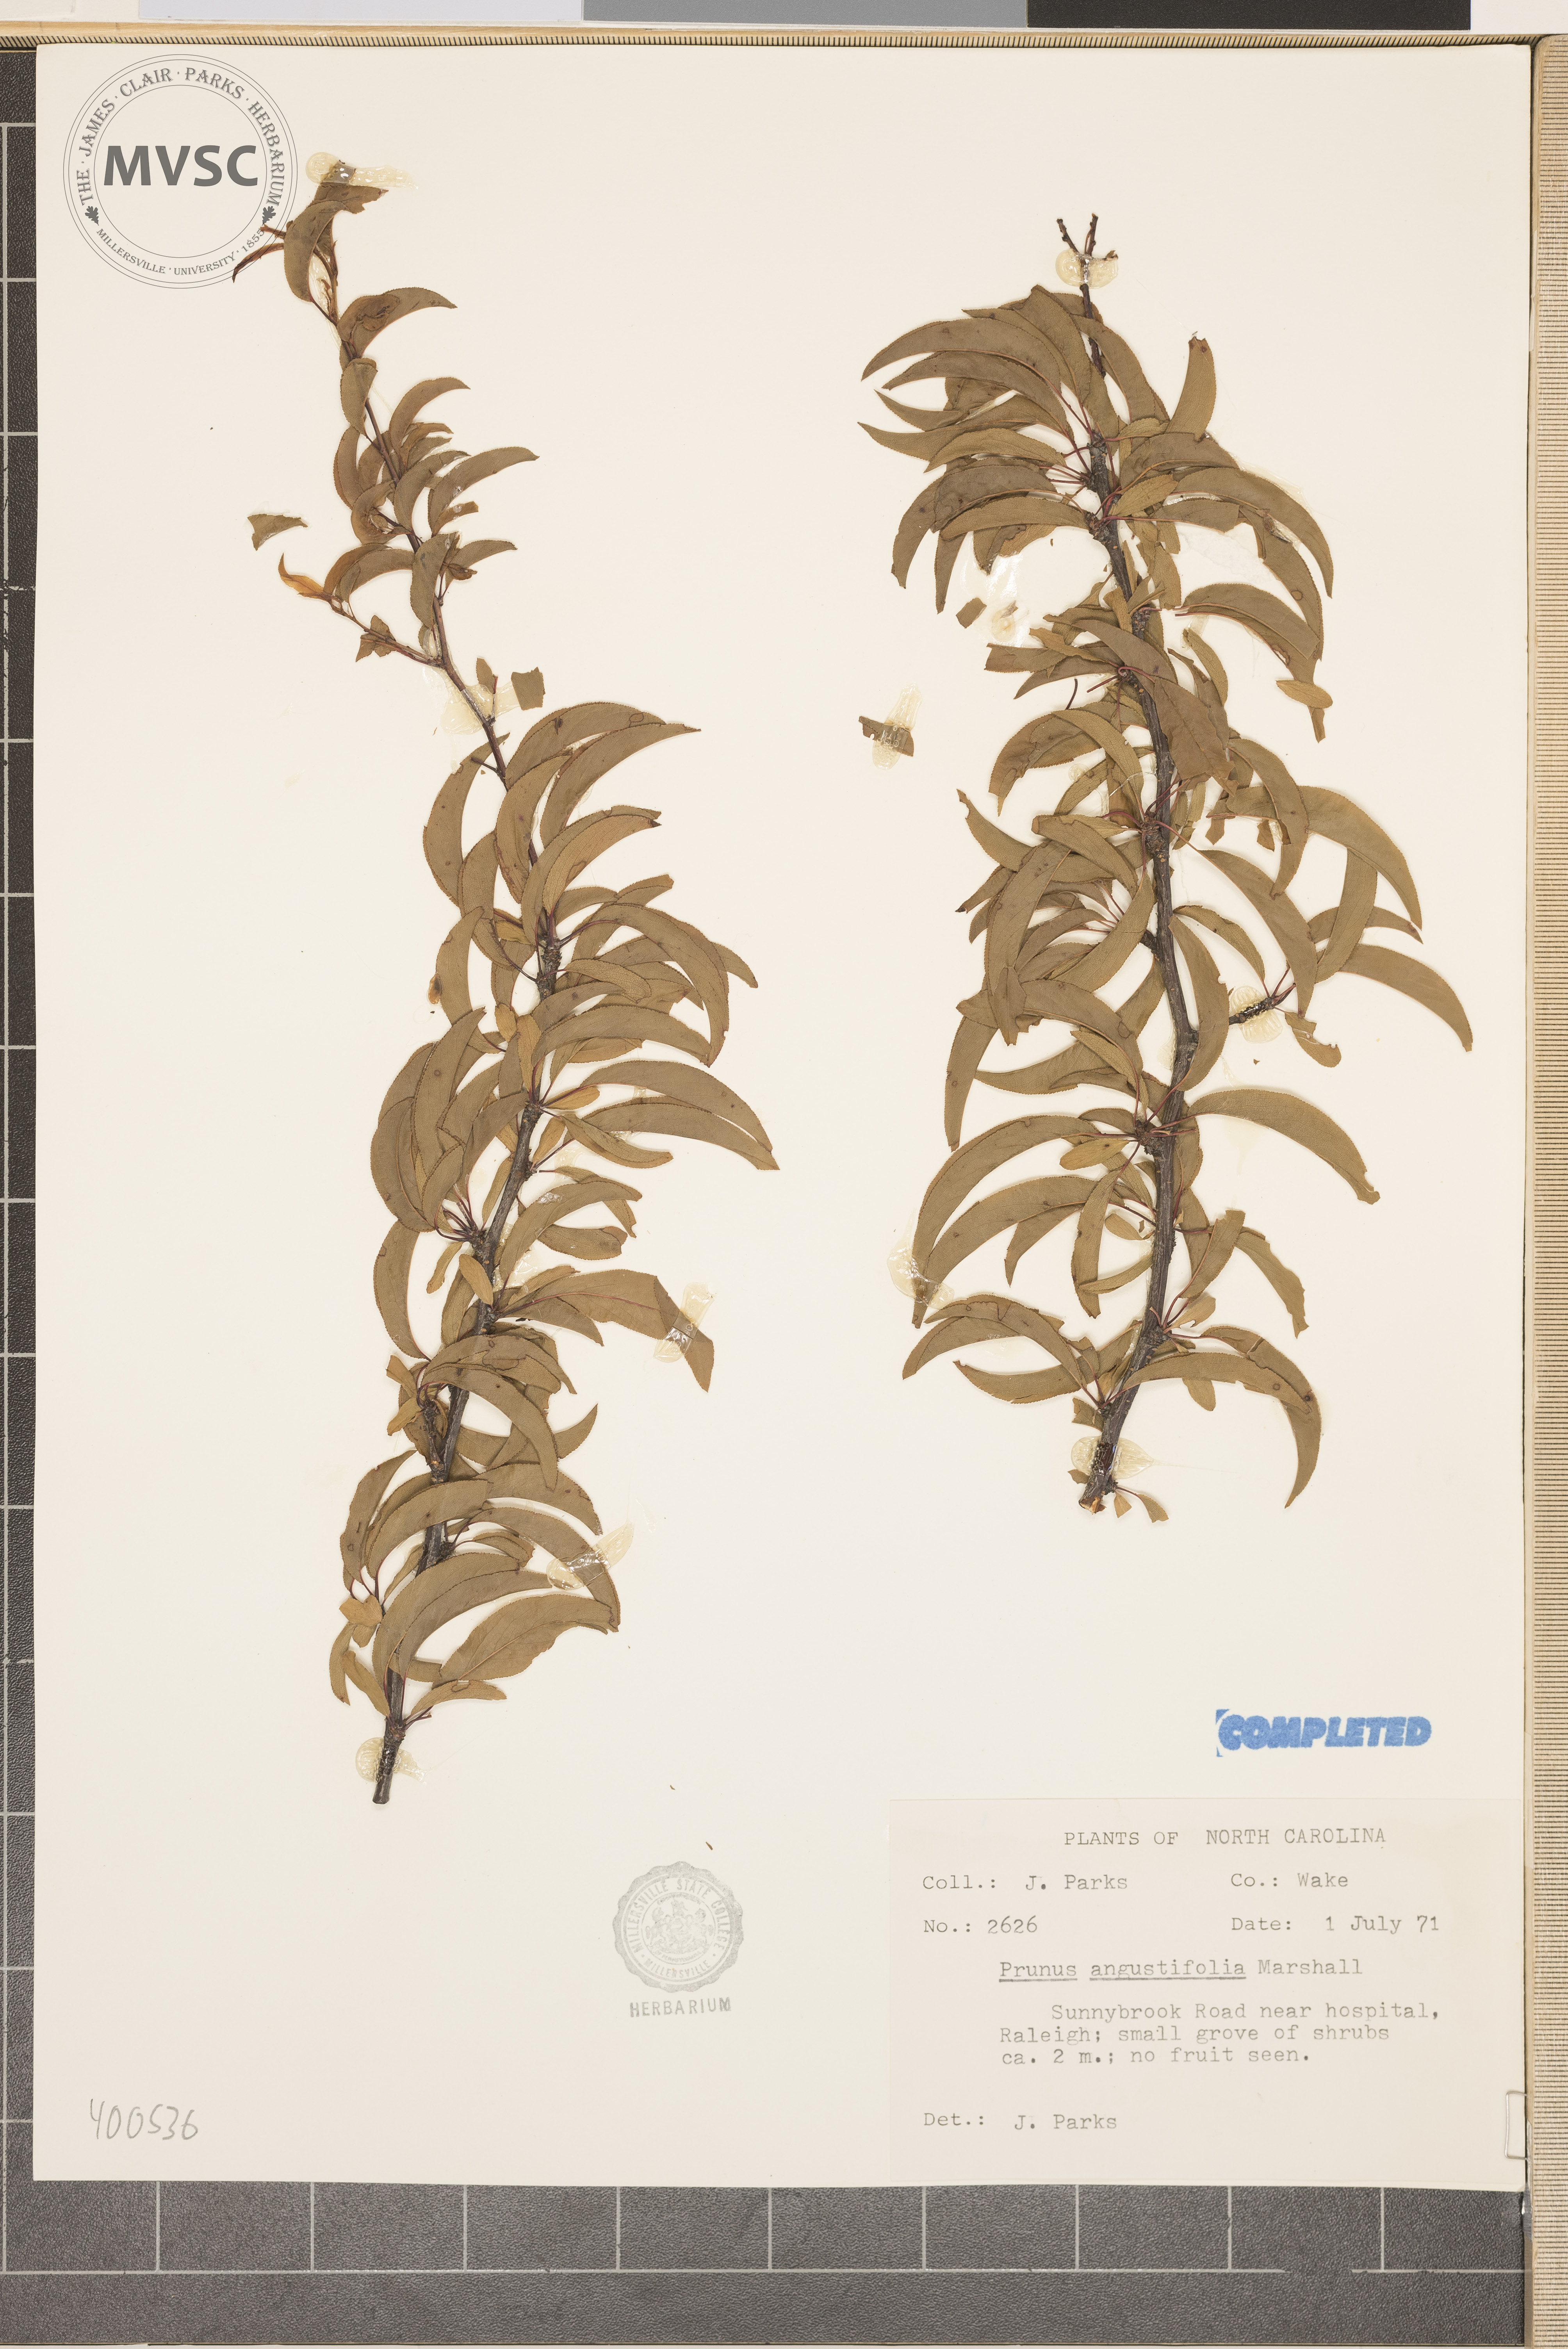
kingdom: Plantae
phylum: Tracheophyta
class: Magnoliopsida
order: Rosales
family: Rosaceae
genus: Prunus
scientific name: Prunus angustifolia
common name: Chickasaw Plum
